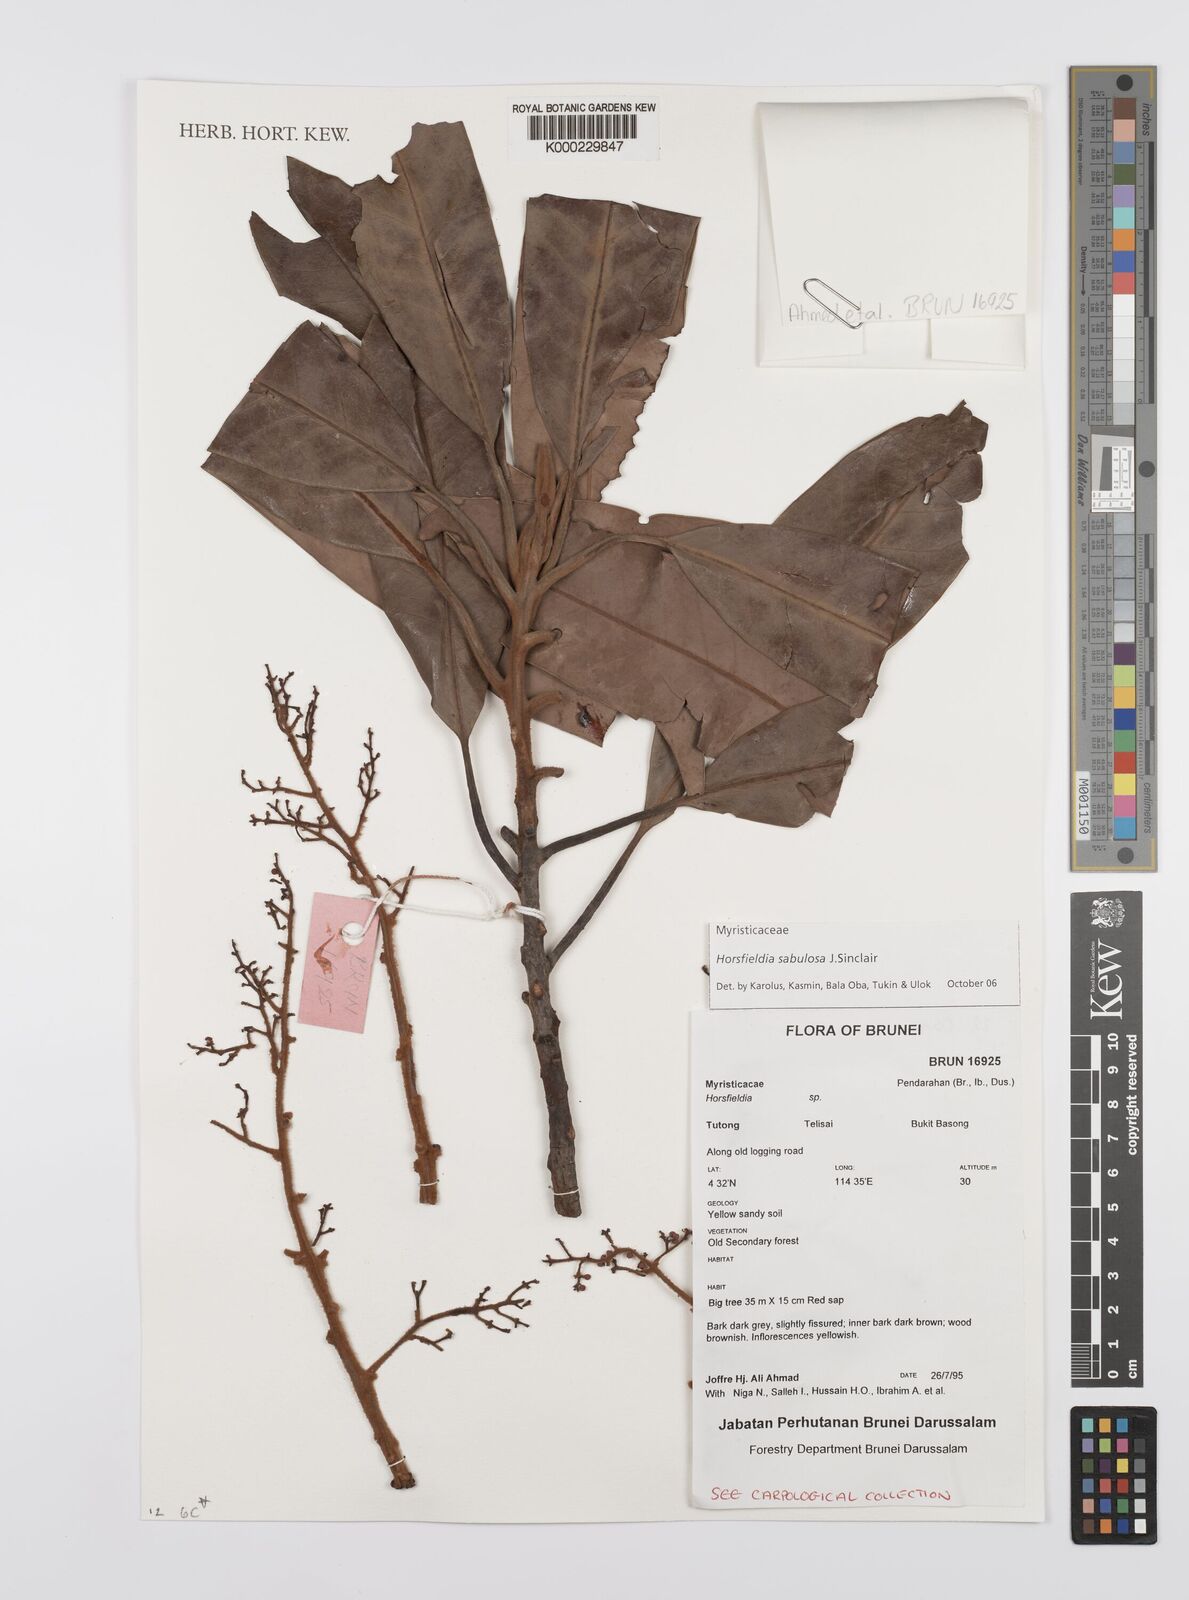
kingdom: Plantae
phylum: Tracheophyta
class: Magnoliopsida
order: Magnoliales
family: Myristicaceae
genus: Horsfieldia
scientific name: Horsfieldia sabulosa
